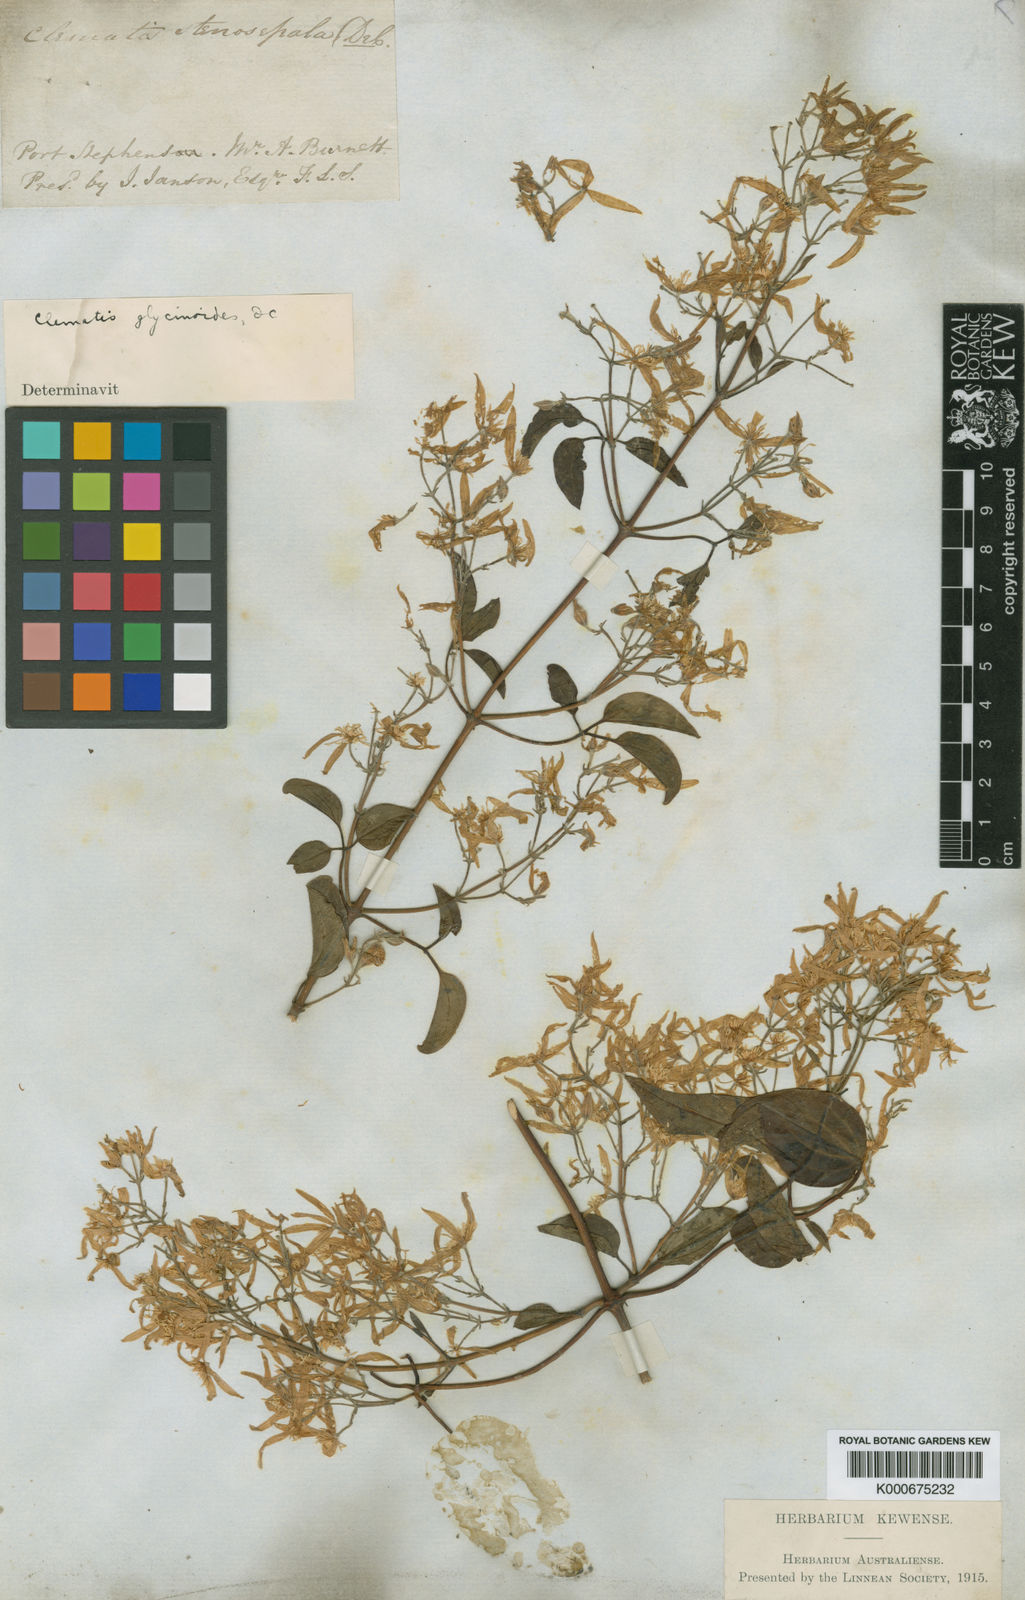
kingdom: Plantae
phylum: Tracheophyta
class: Magnoliopsida
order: Ranunculales
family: Ranunculaceae
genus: Clematis
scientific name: Clematis glycinoides
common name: Forest clematis
